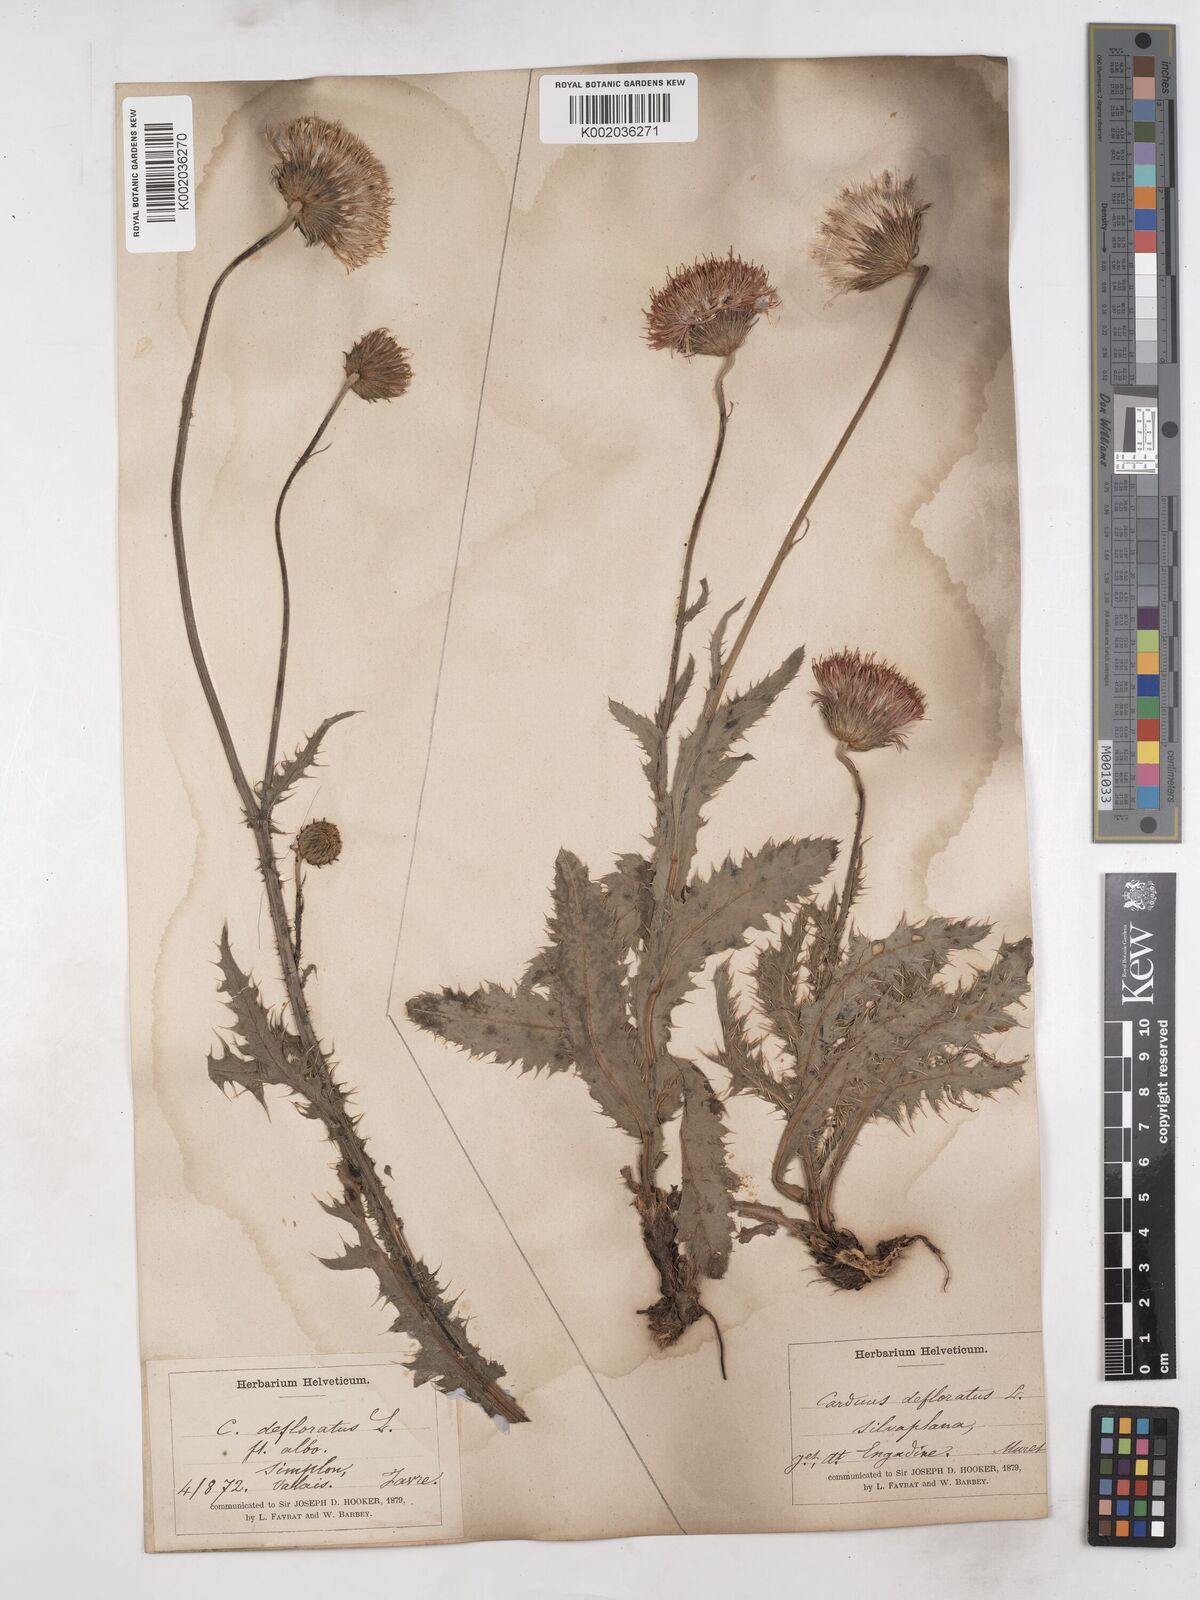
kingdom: Plantae
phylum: Tracheophyta
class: Magnoliopsida
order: Asterales
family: Asteraceae
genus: Carduus
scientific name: Carduus defloratus
